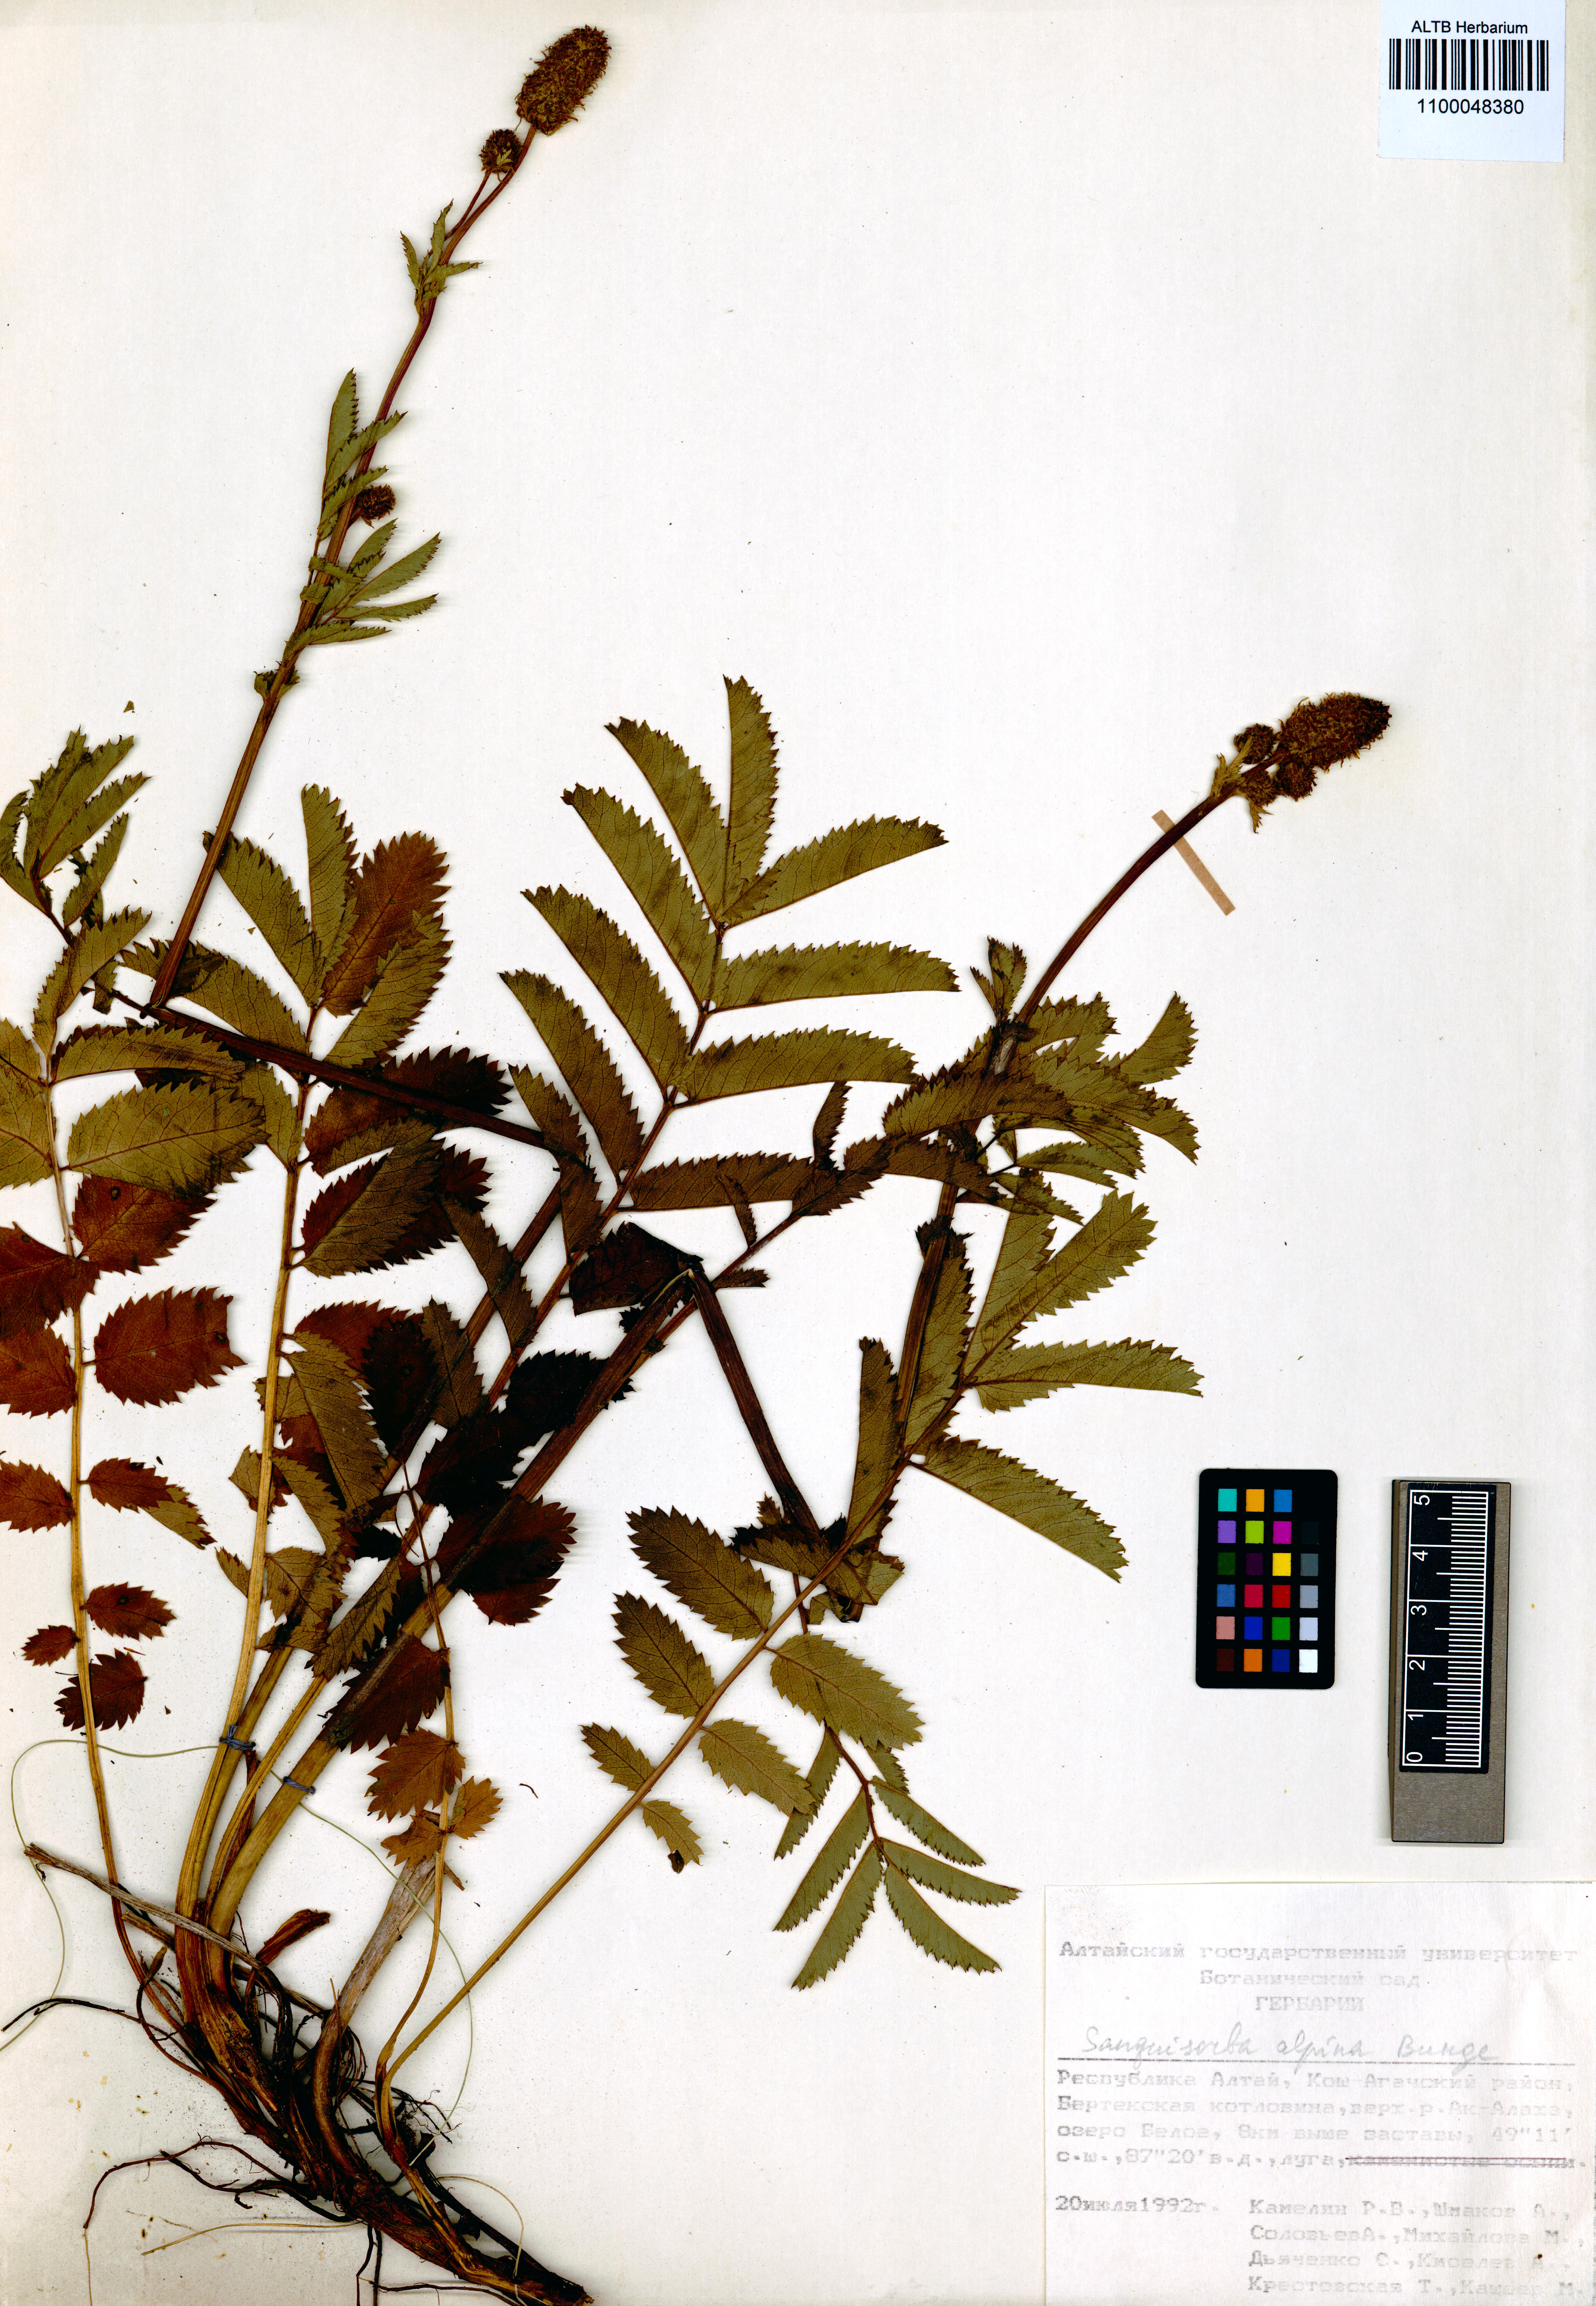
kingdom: Plantae
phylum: Tracheophyta
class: Magnoliopsida
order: Rosales
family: Rosaceae
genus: Sanguisorba
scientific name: Sanguisorba alpina
